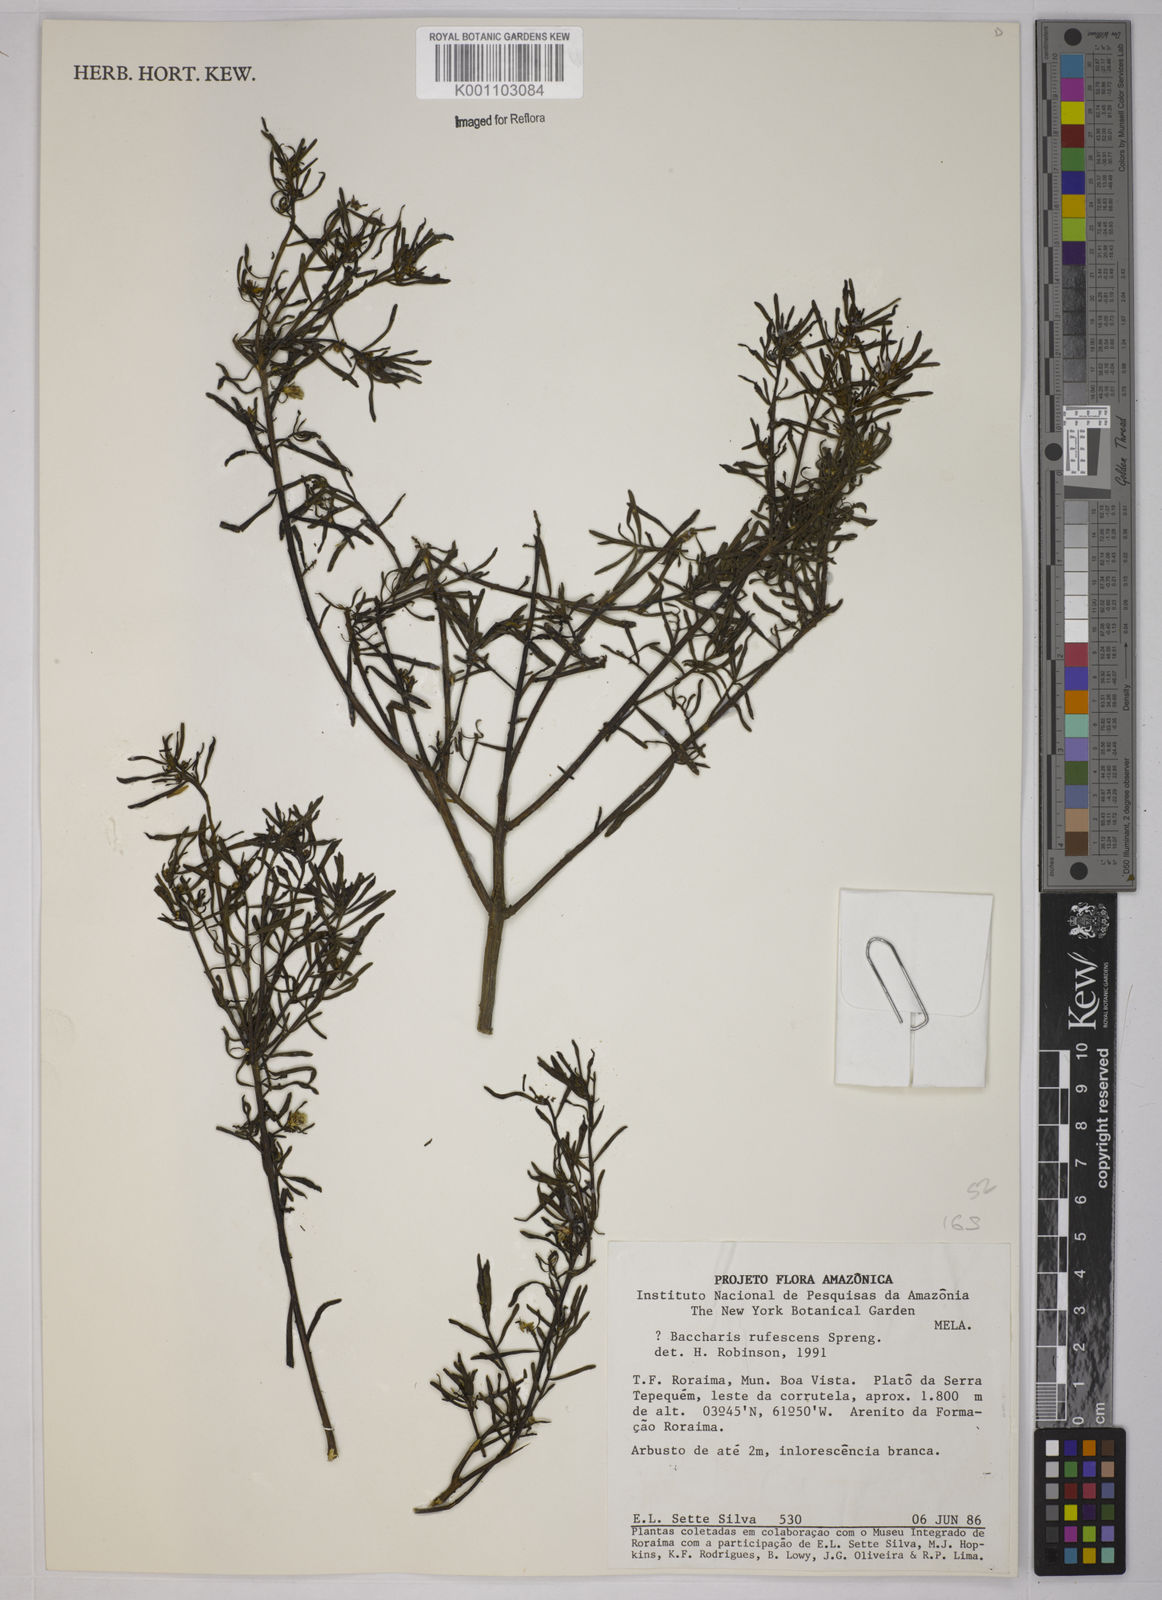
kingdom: Plantae
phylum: Tracheophyta
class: Magnoliopsida
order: Asterales
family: Asteraceae
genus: Baccharis
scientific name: Baccharis rufescens
